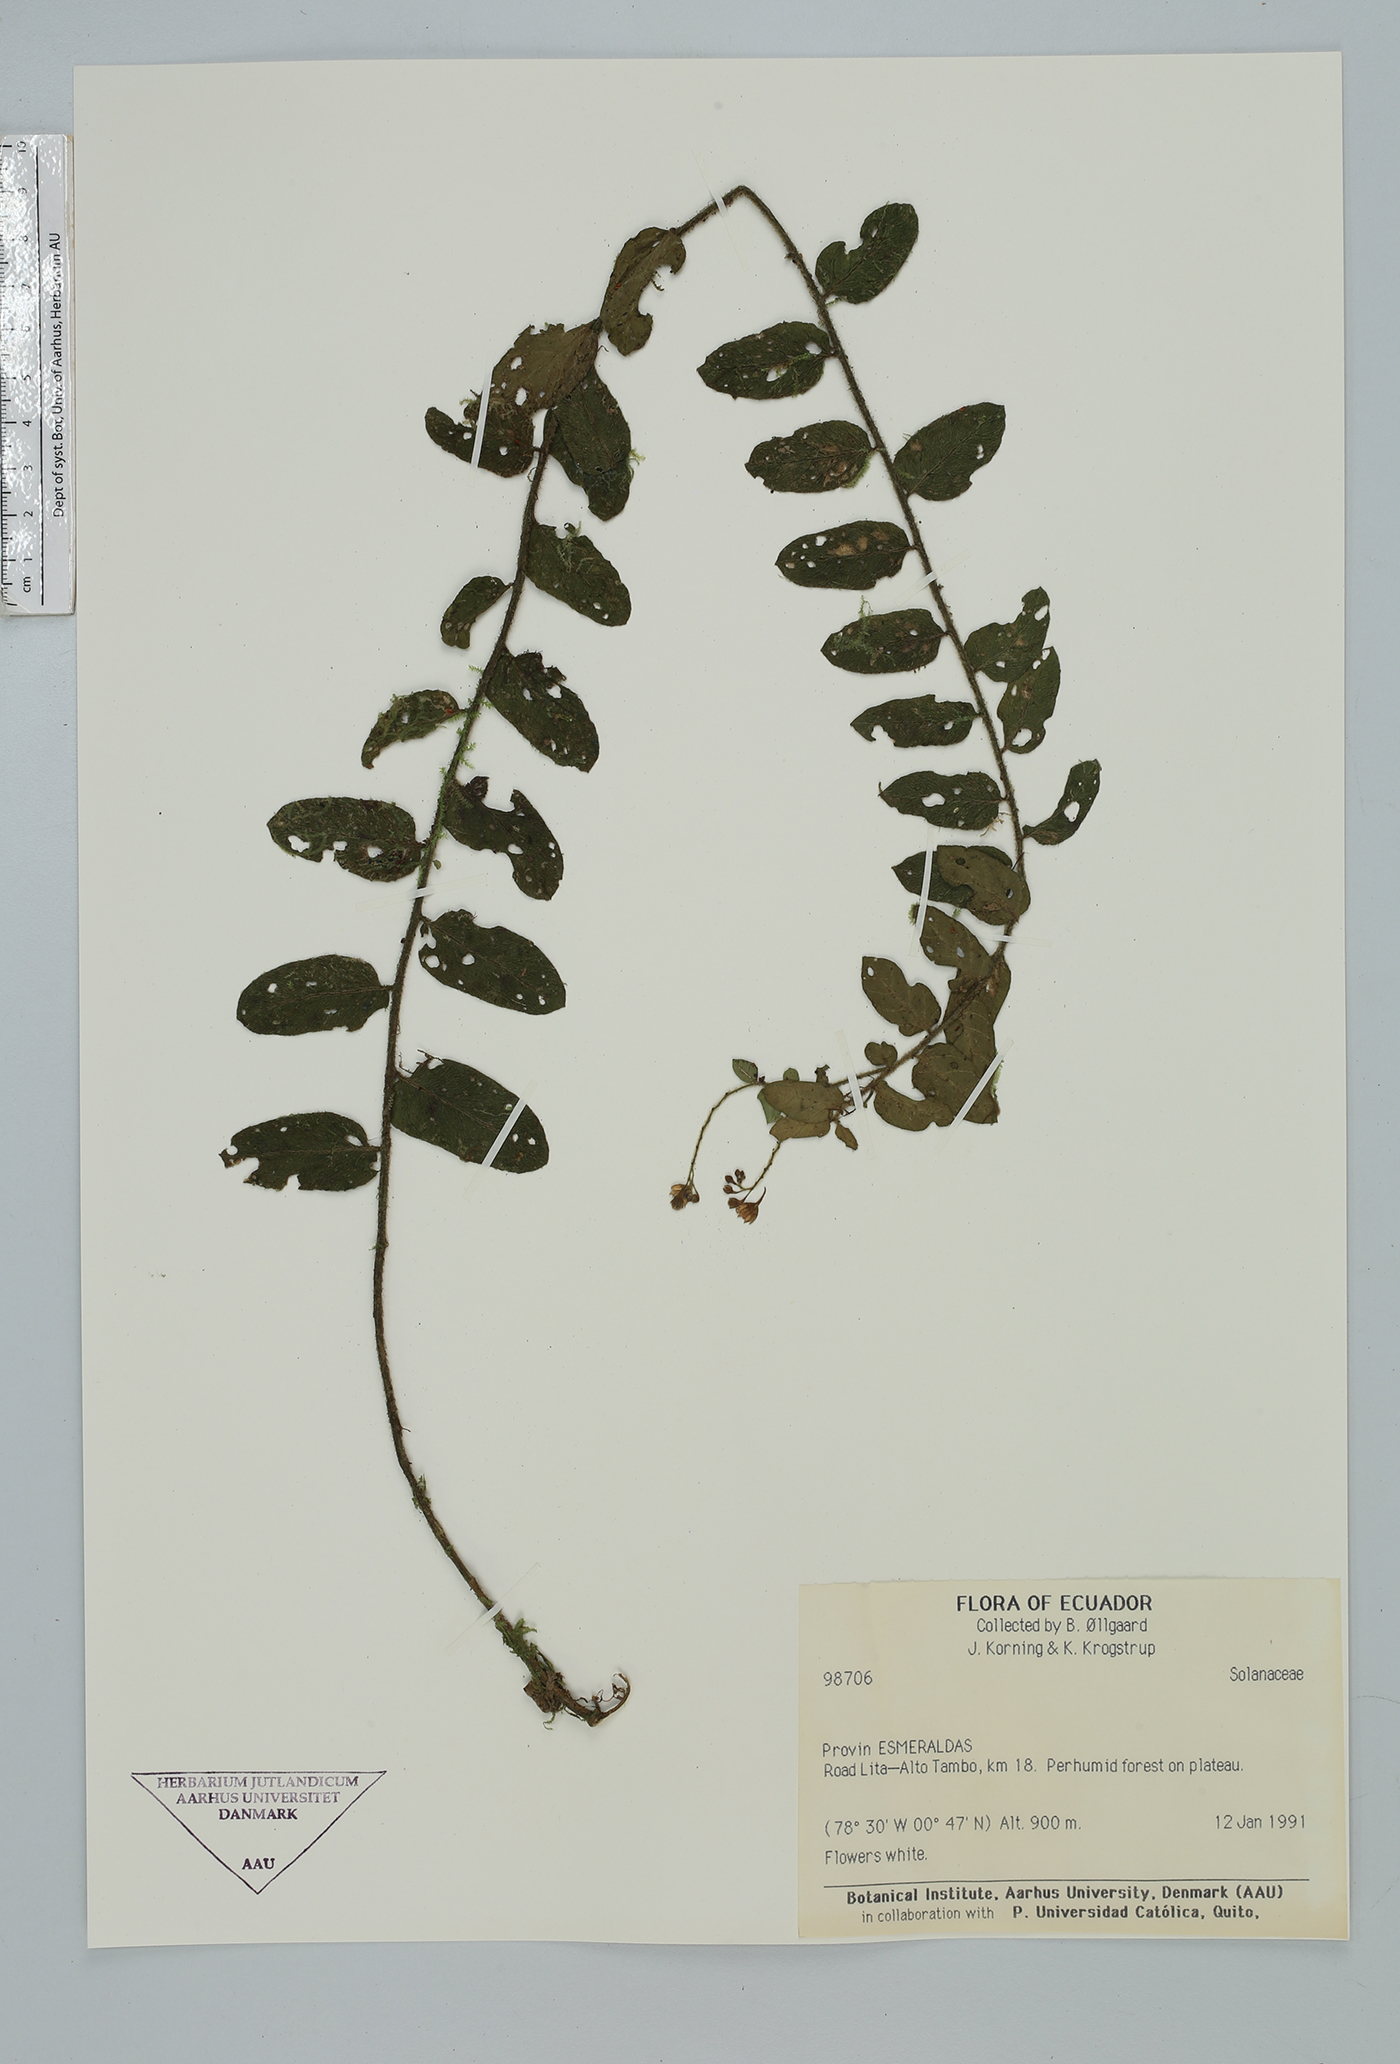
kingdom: Plantae
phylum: Tracheophyta
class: Magnoliopsida
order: Solanales
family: Solanaceae
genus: Solanum
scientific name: Solanum evolvulifolium
